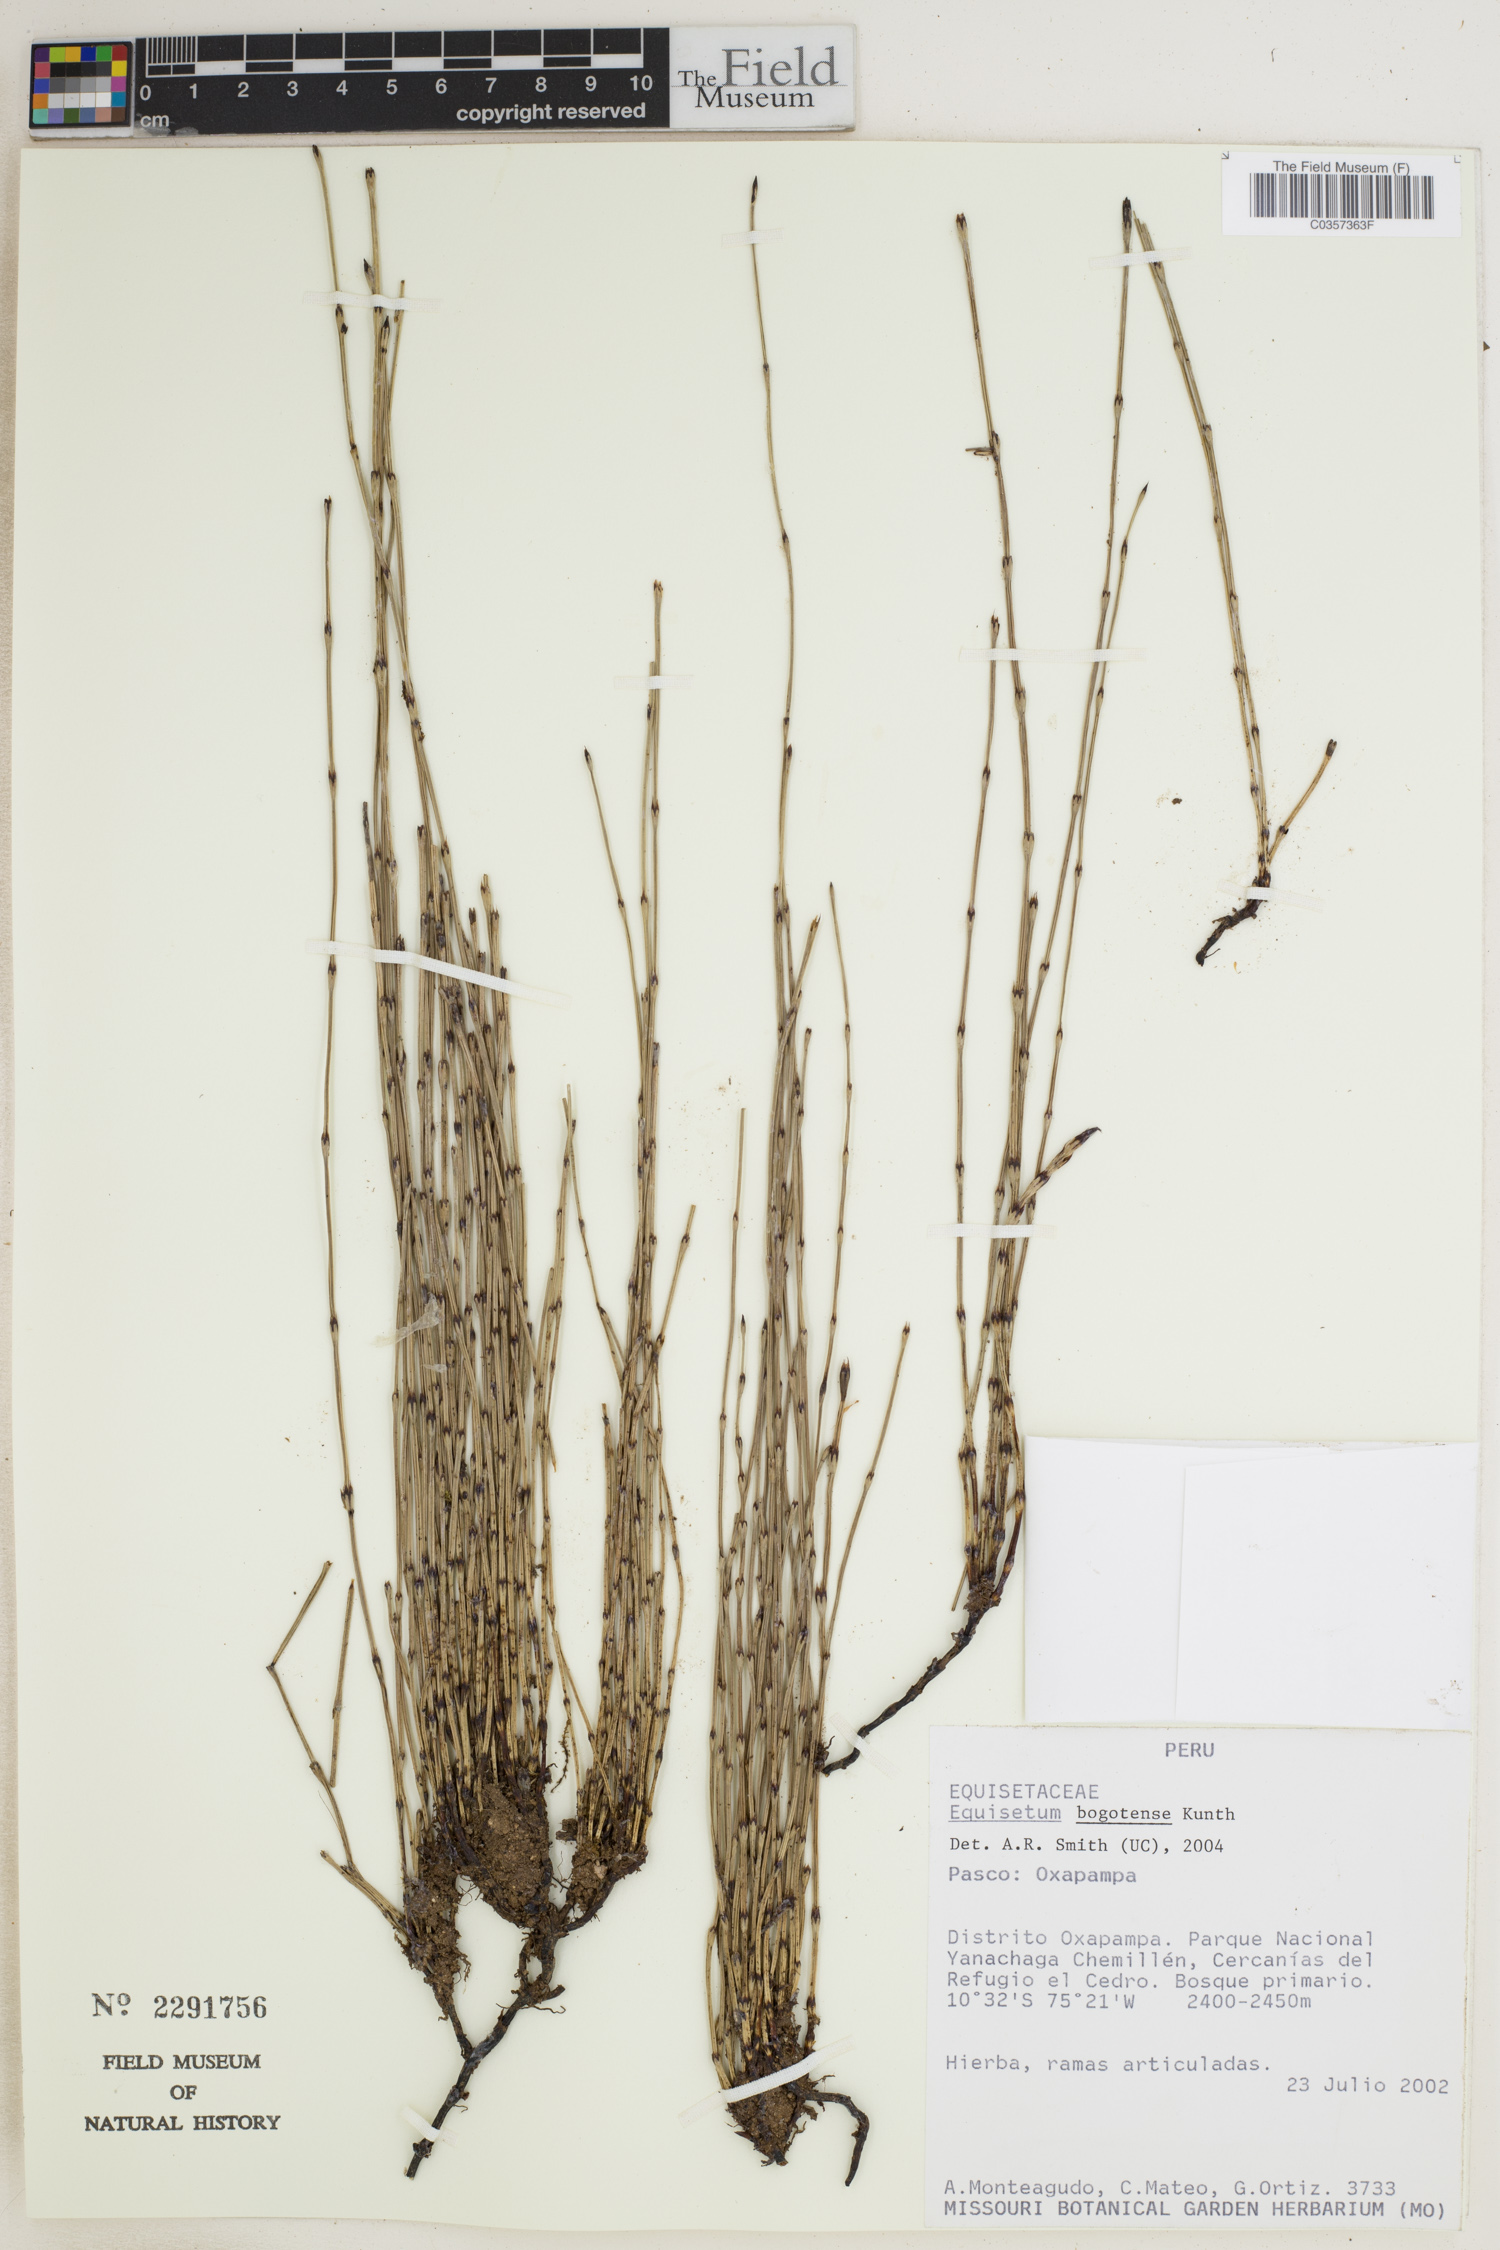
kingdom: Plantae
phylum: Tracheophyta
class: Polypodiopsida
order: Equisetales
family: Equisetaceae
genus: Equisetum
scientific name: Equisetum bogotense
